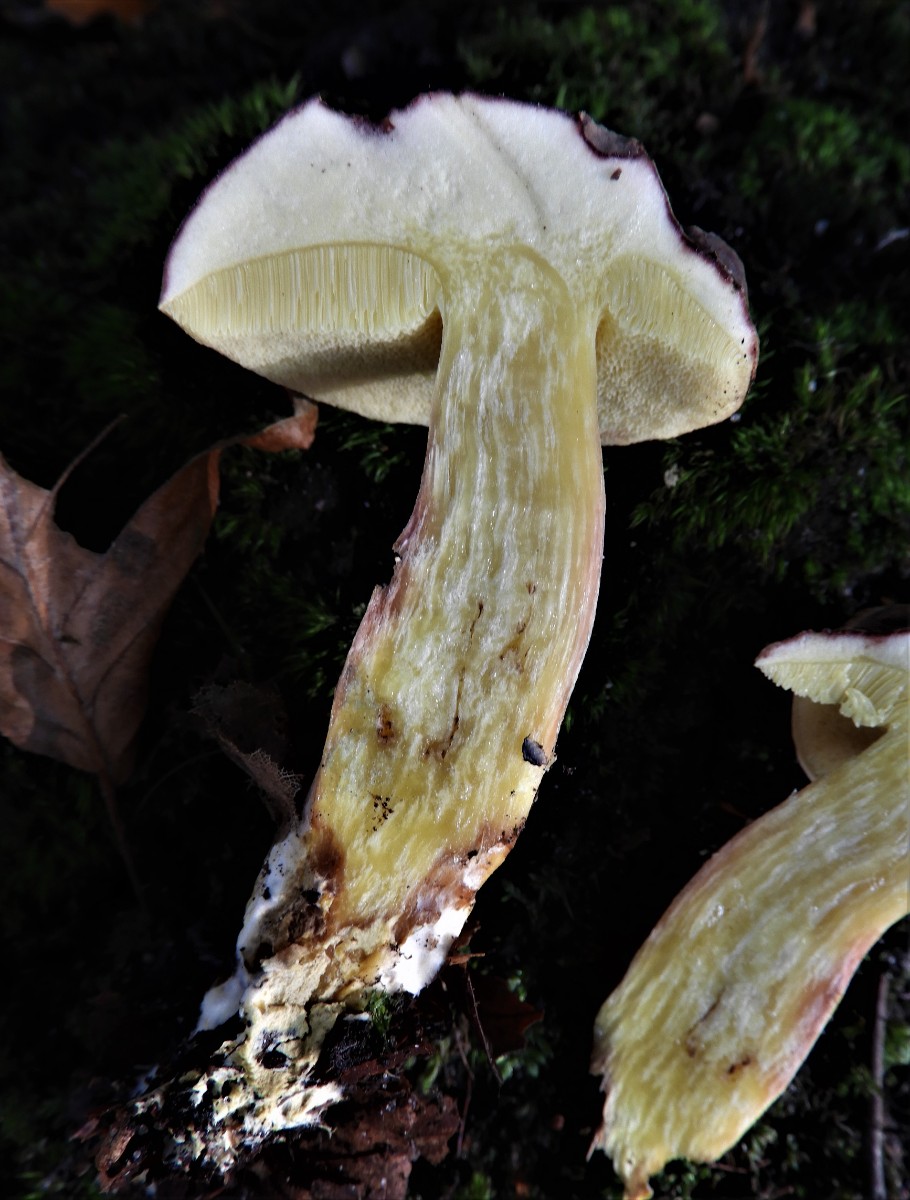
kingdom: Fungi
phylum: Basidiomycota
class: Agaricomycetes
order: Boletales
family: Boletaceae
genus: Xerocomellus
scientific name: Xerocomellus pruinatus
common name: dugget rørhat
